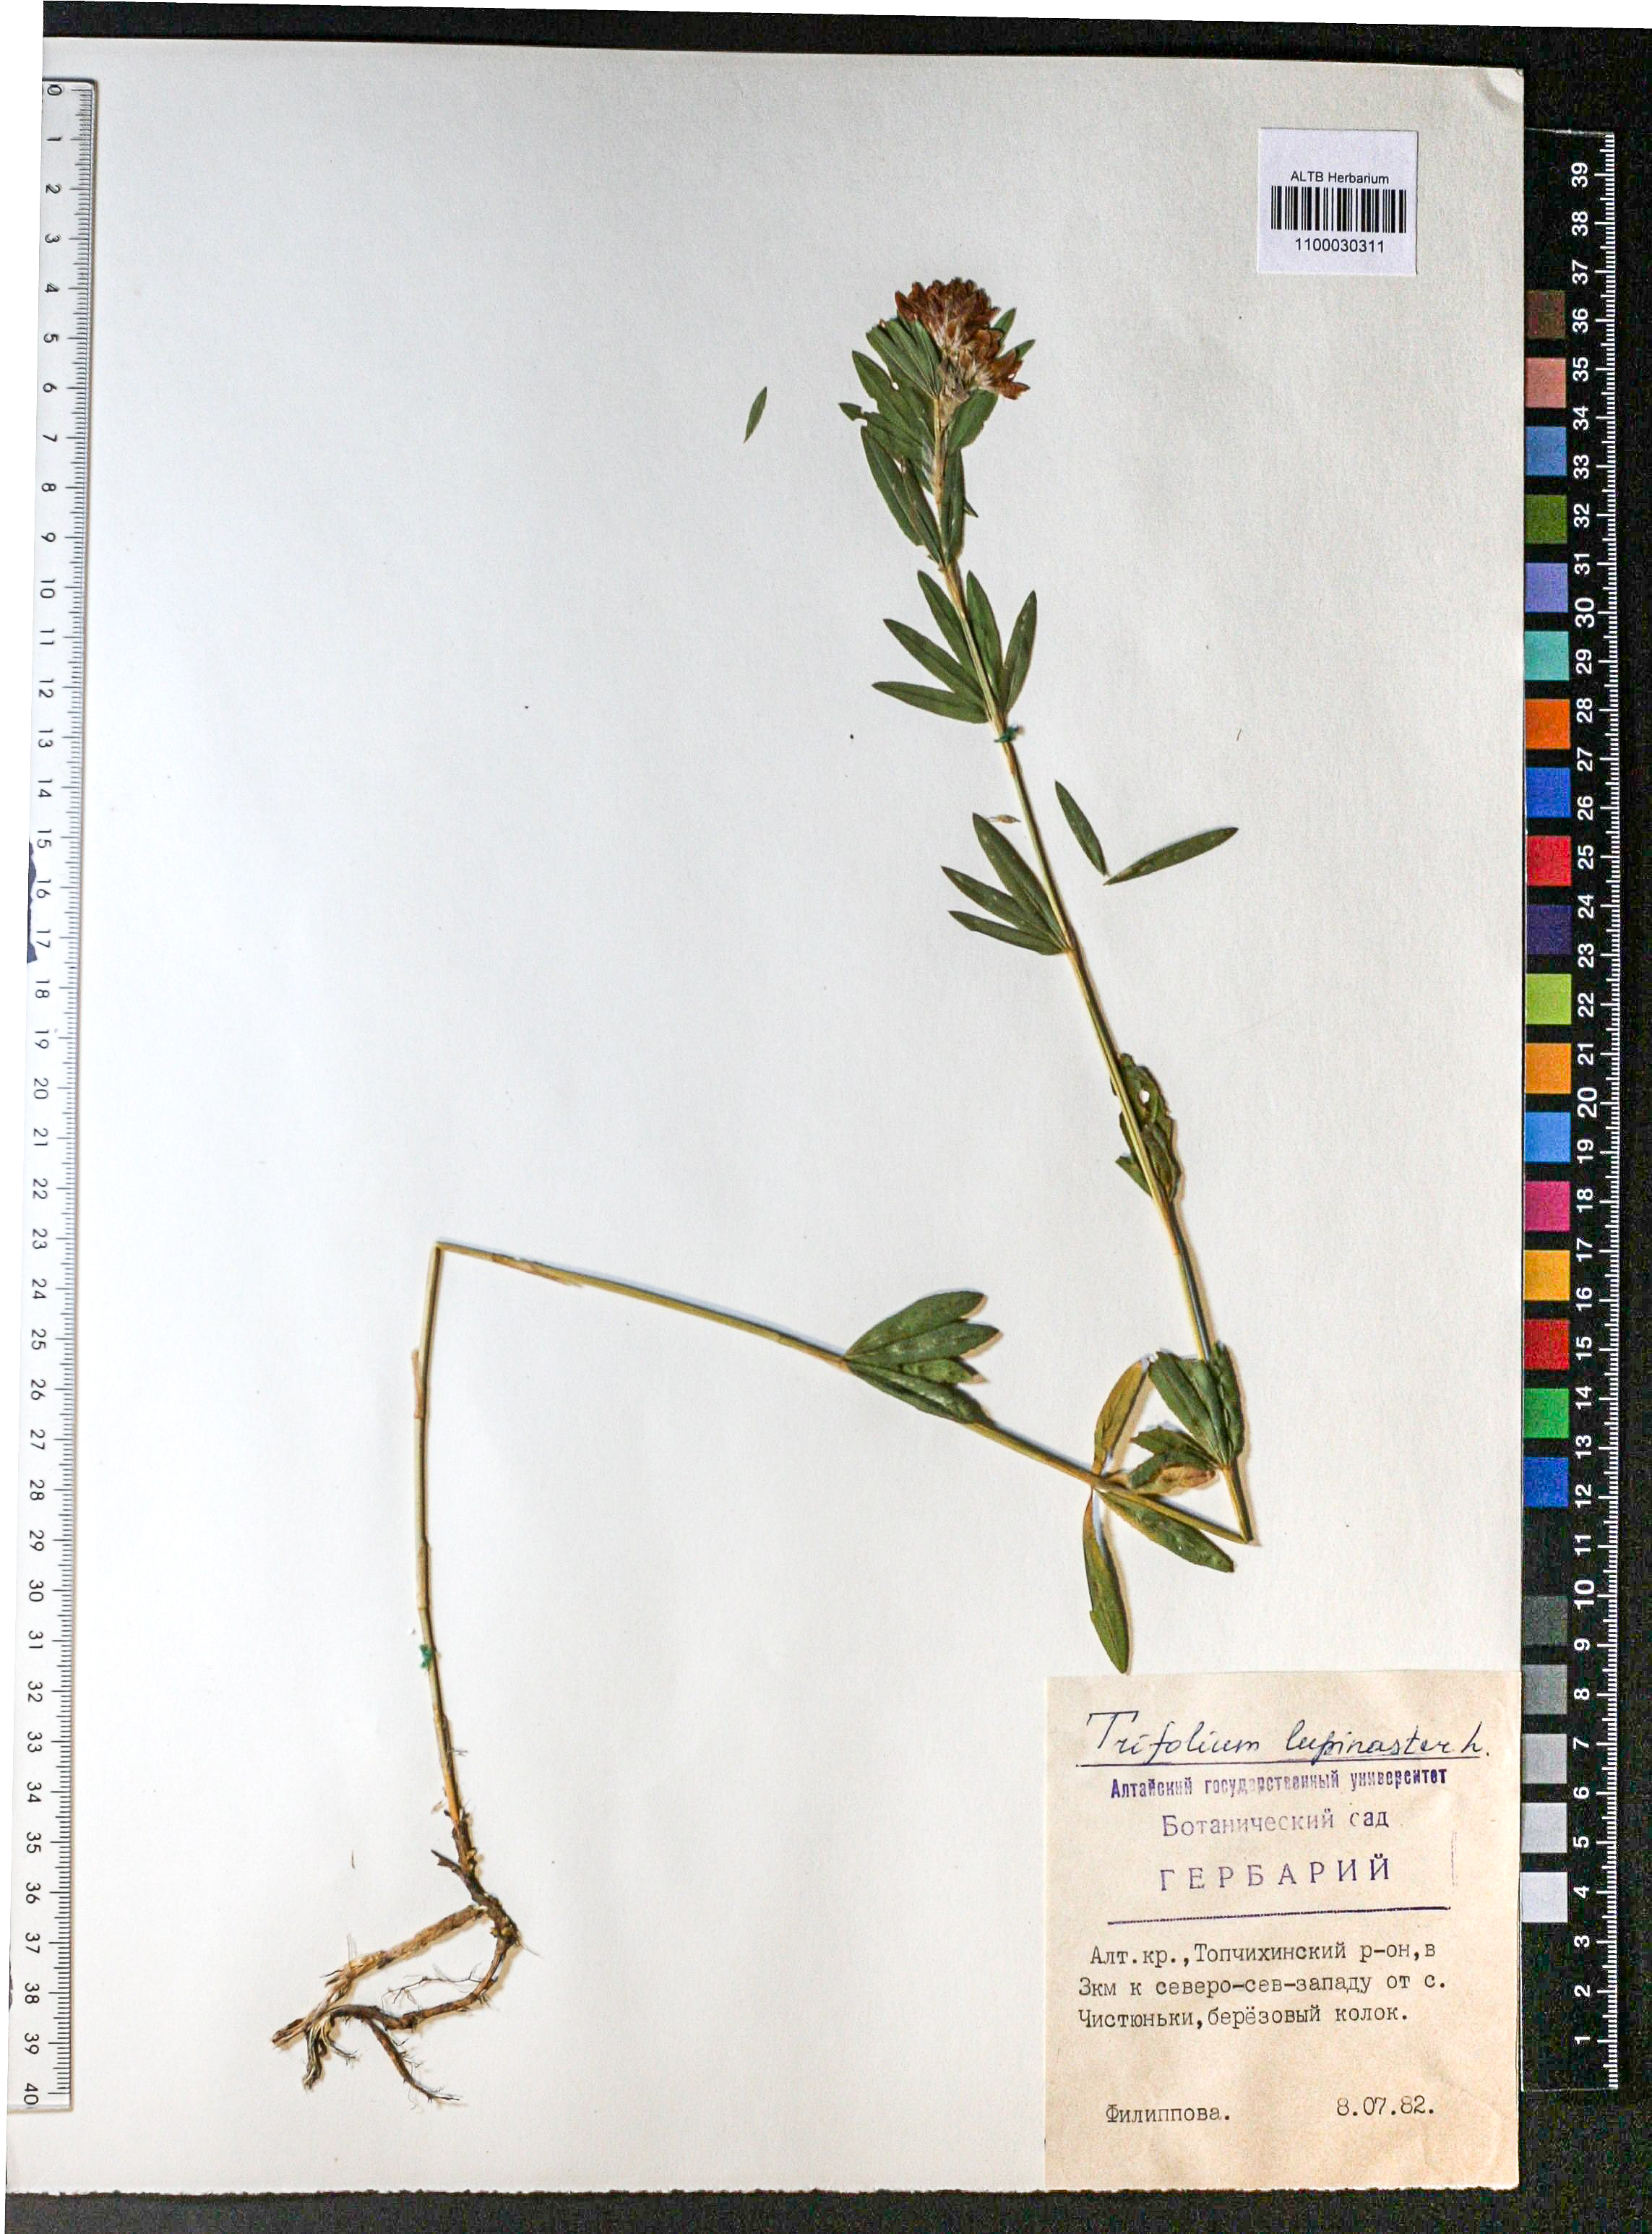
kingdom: Plantae
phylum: Tracheophyta
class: Magnoliopsida
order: Fabales
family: Fabaceae
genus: Trifolium
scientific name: Trifolium lupinaster
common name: Lupine clover
